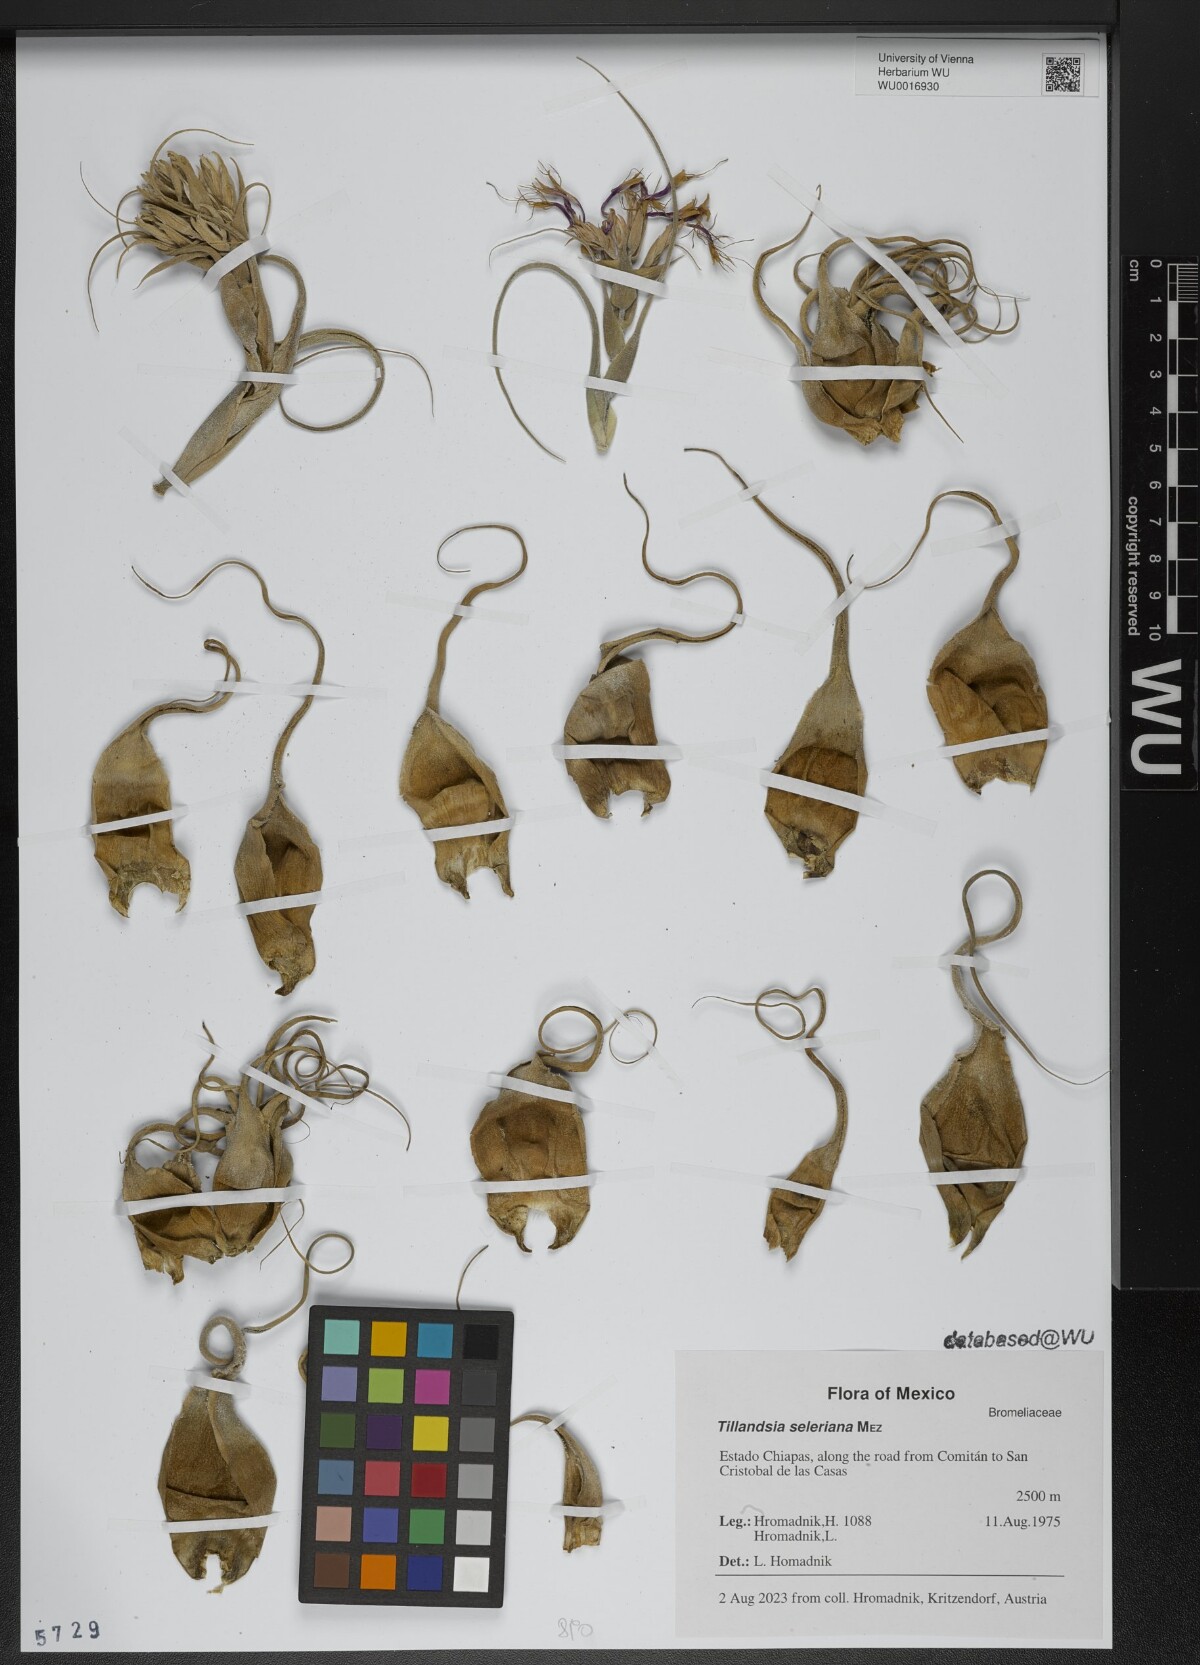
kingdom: Plantae
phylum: Tracheophyta
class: Liliopsida
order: Poales
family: Bromeliaceae
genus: Tillandsia
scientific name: Tillandsia seleriana
